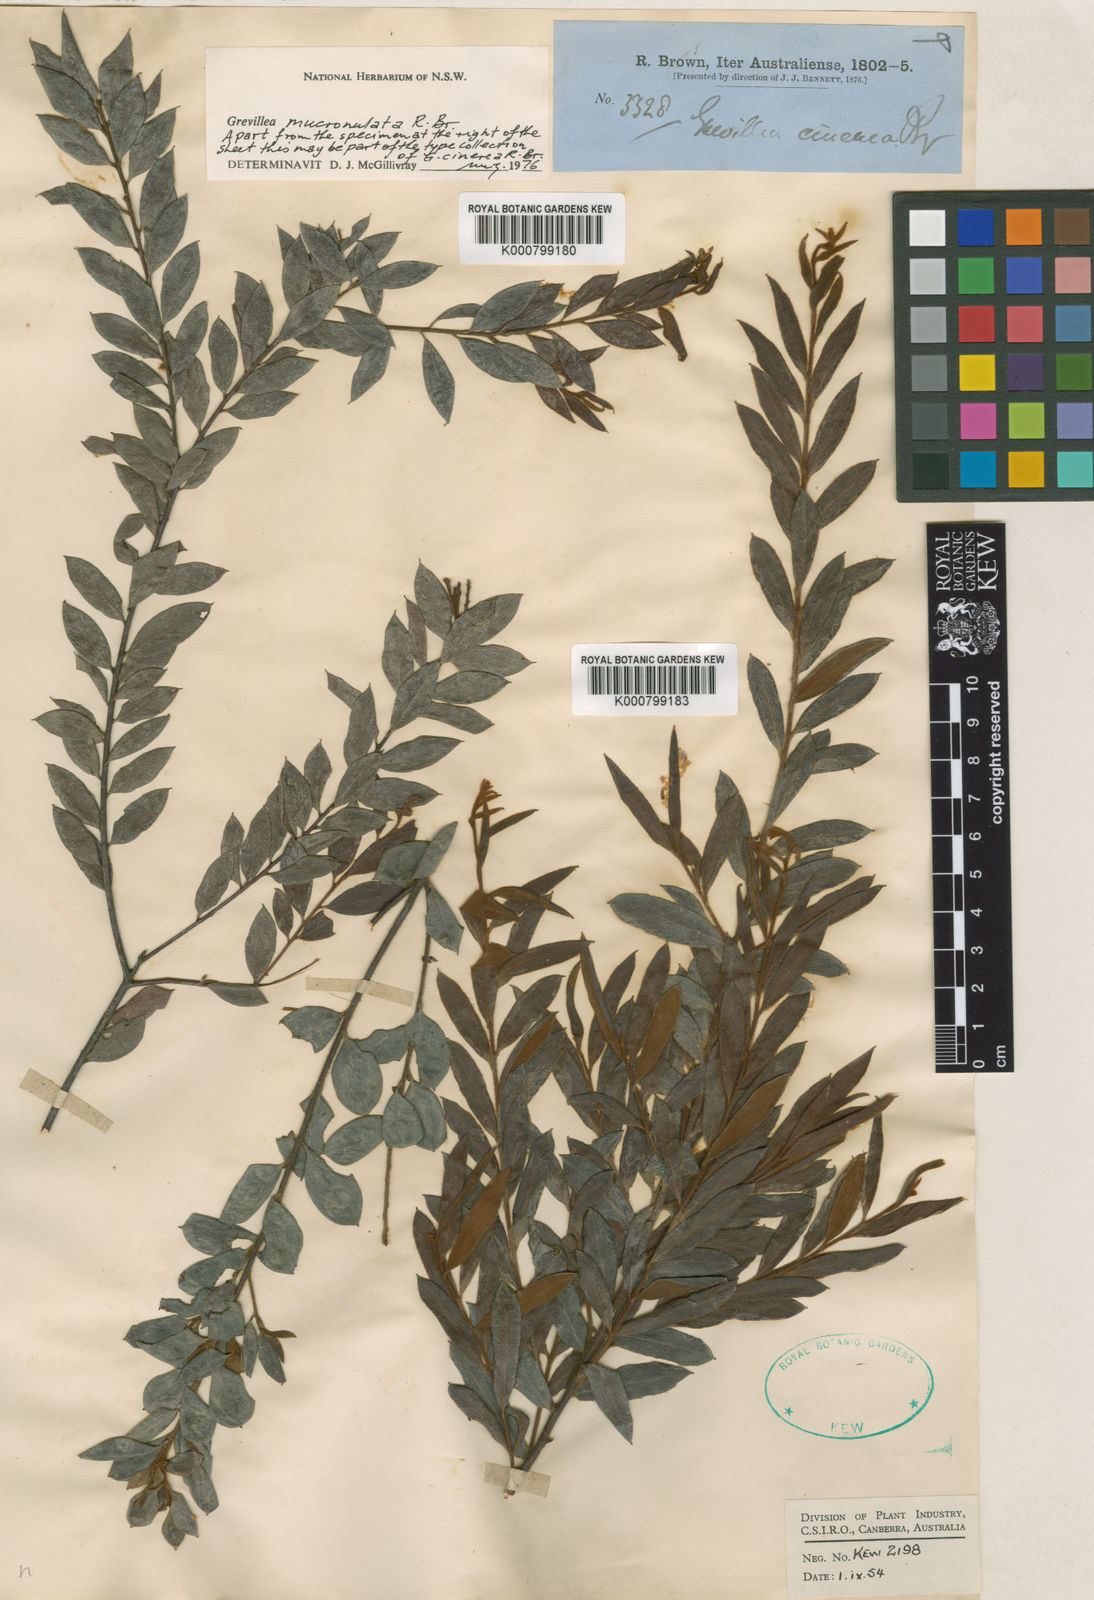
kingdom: Plantae
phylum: Tracheophyta
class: Magnoliopsida
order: Proteales
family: Proteaceae
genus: Grevillea
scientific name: Grevillea mucronulata
